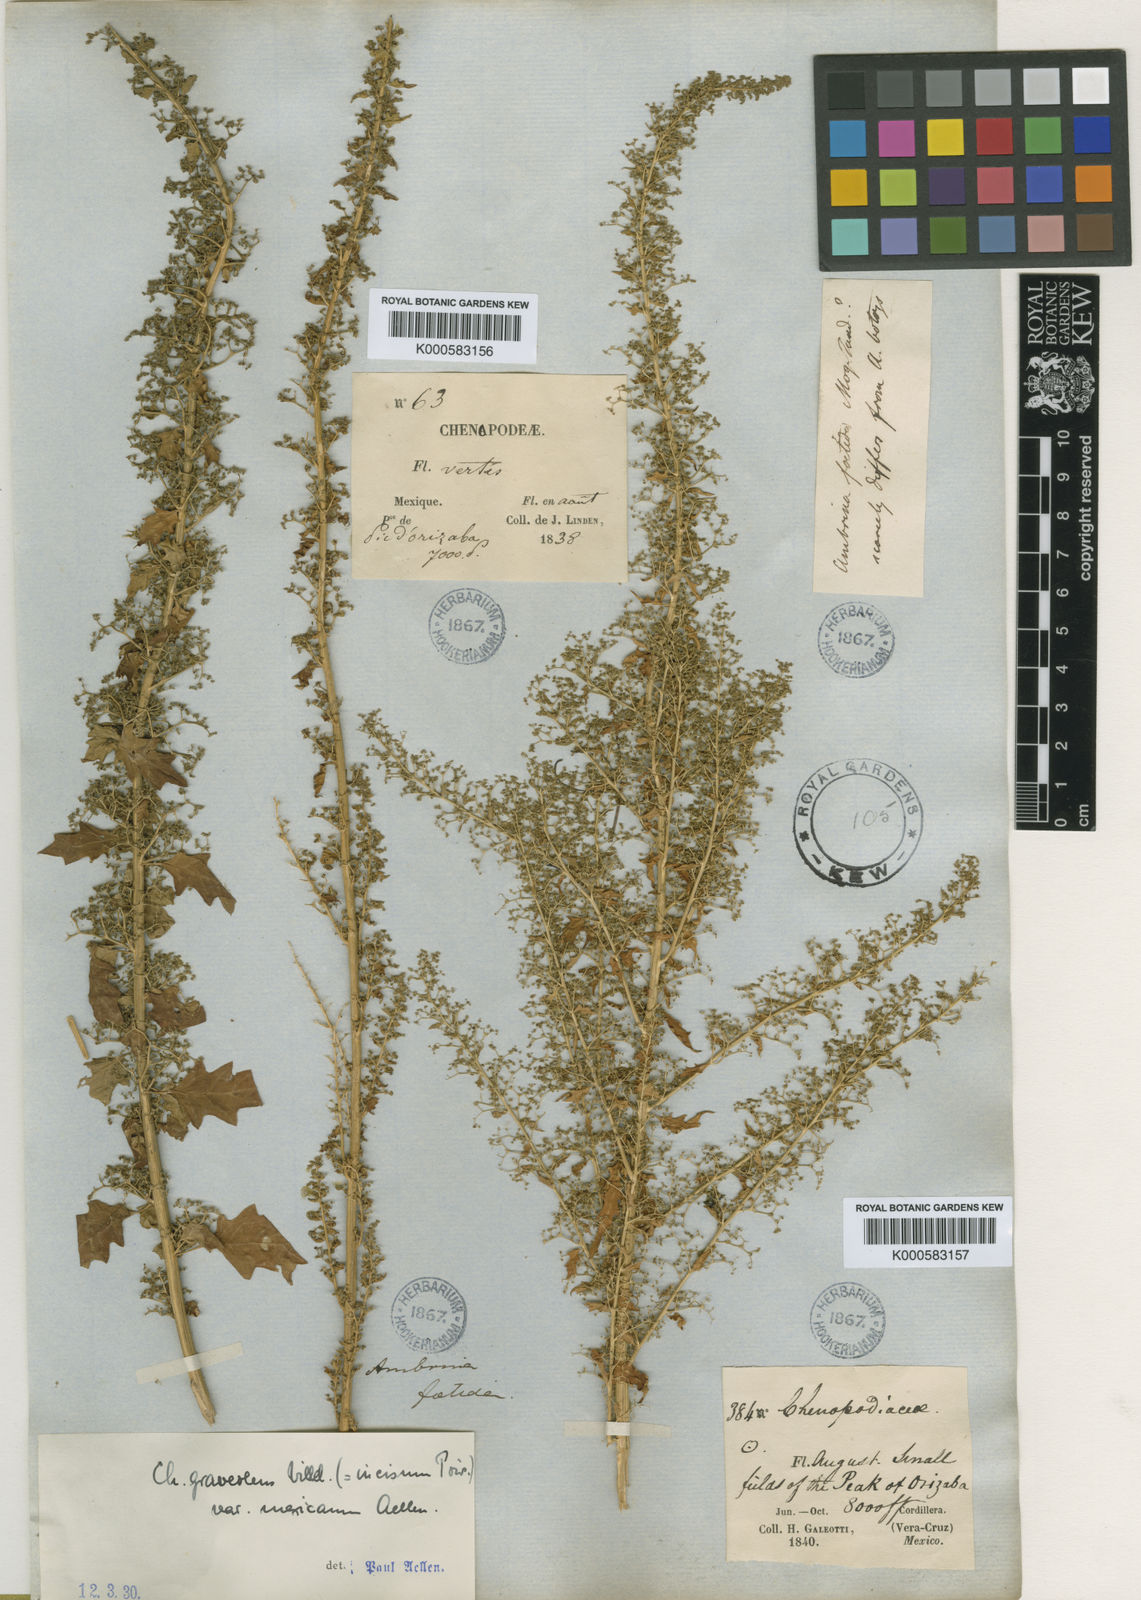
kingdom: Plantae
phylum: Tracheophyta
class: Magnoliopsida
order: Caryophyllales
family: Amaranthaceae
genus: Dysphania
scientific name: Dysphania graveolens
